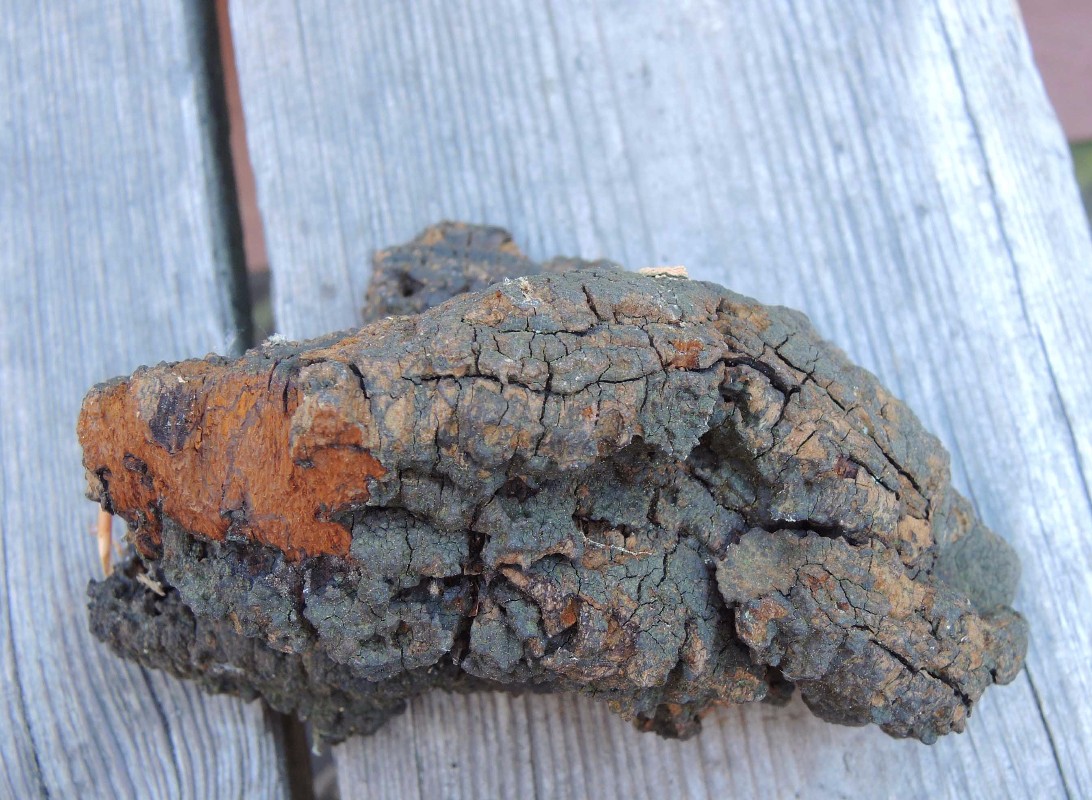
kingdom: Fungi
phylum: Basidiomycota
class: Agaricomycetes
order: Hymenochaetales
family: Hymenochaetaceae
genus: Porodaedalea
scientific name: Porodaedalea pini
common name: fyrre-ildporesvamp
